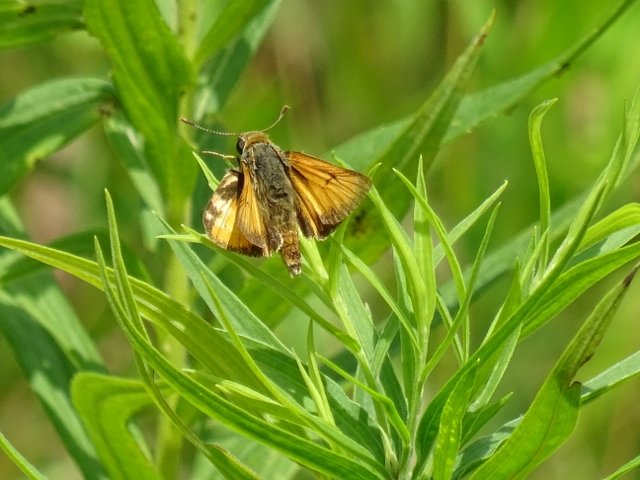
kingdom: Animalia
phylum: Arthropoda
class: Insecta
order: Lepidoptera
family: Hesperiidae
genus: Atrytone
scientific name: Atrytone delaware
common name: Delaware Skipper
